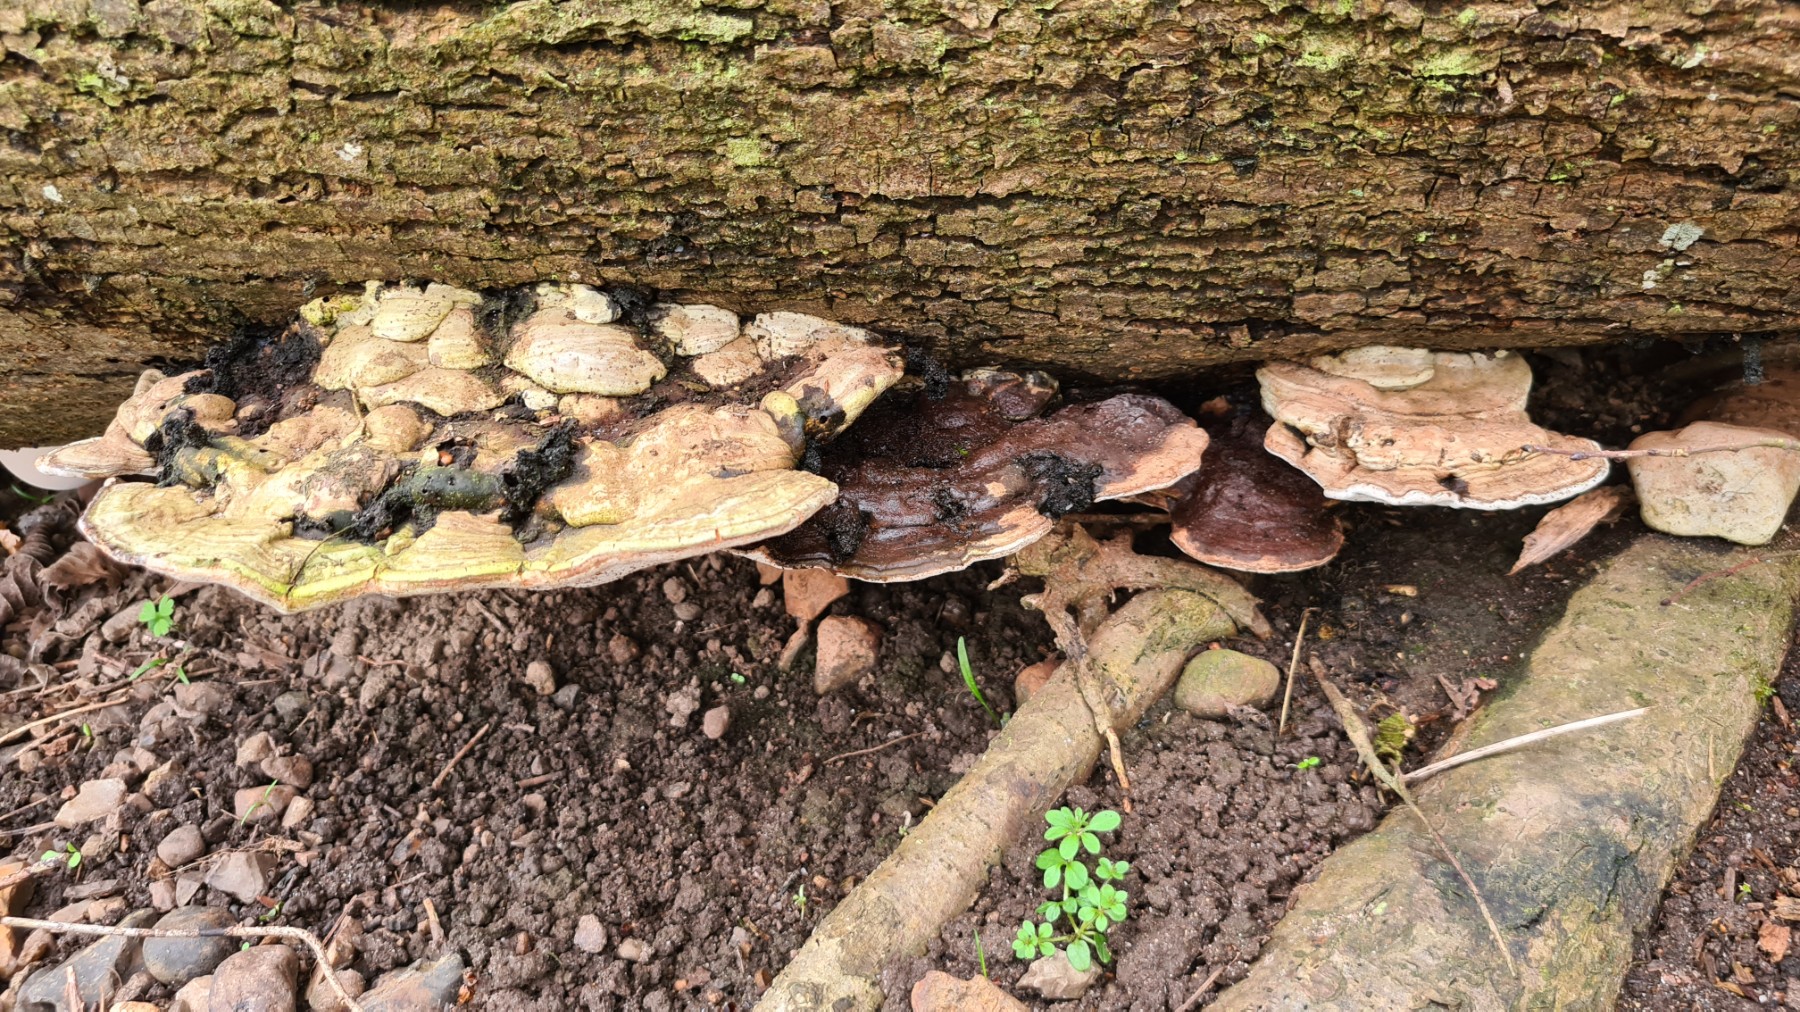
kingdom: Fungi
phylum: Basidiomycota
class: Agaricomycetes
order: Polyporales
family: Polyporaceae
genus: Ganoderma
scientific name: Ganoderma applanatum
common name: flad lakporesvamp
